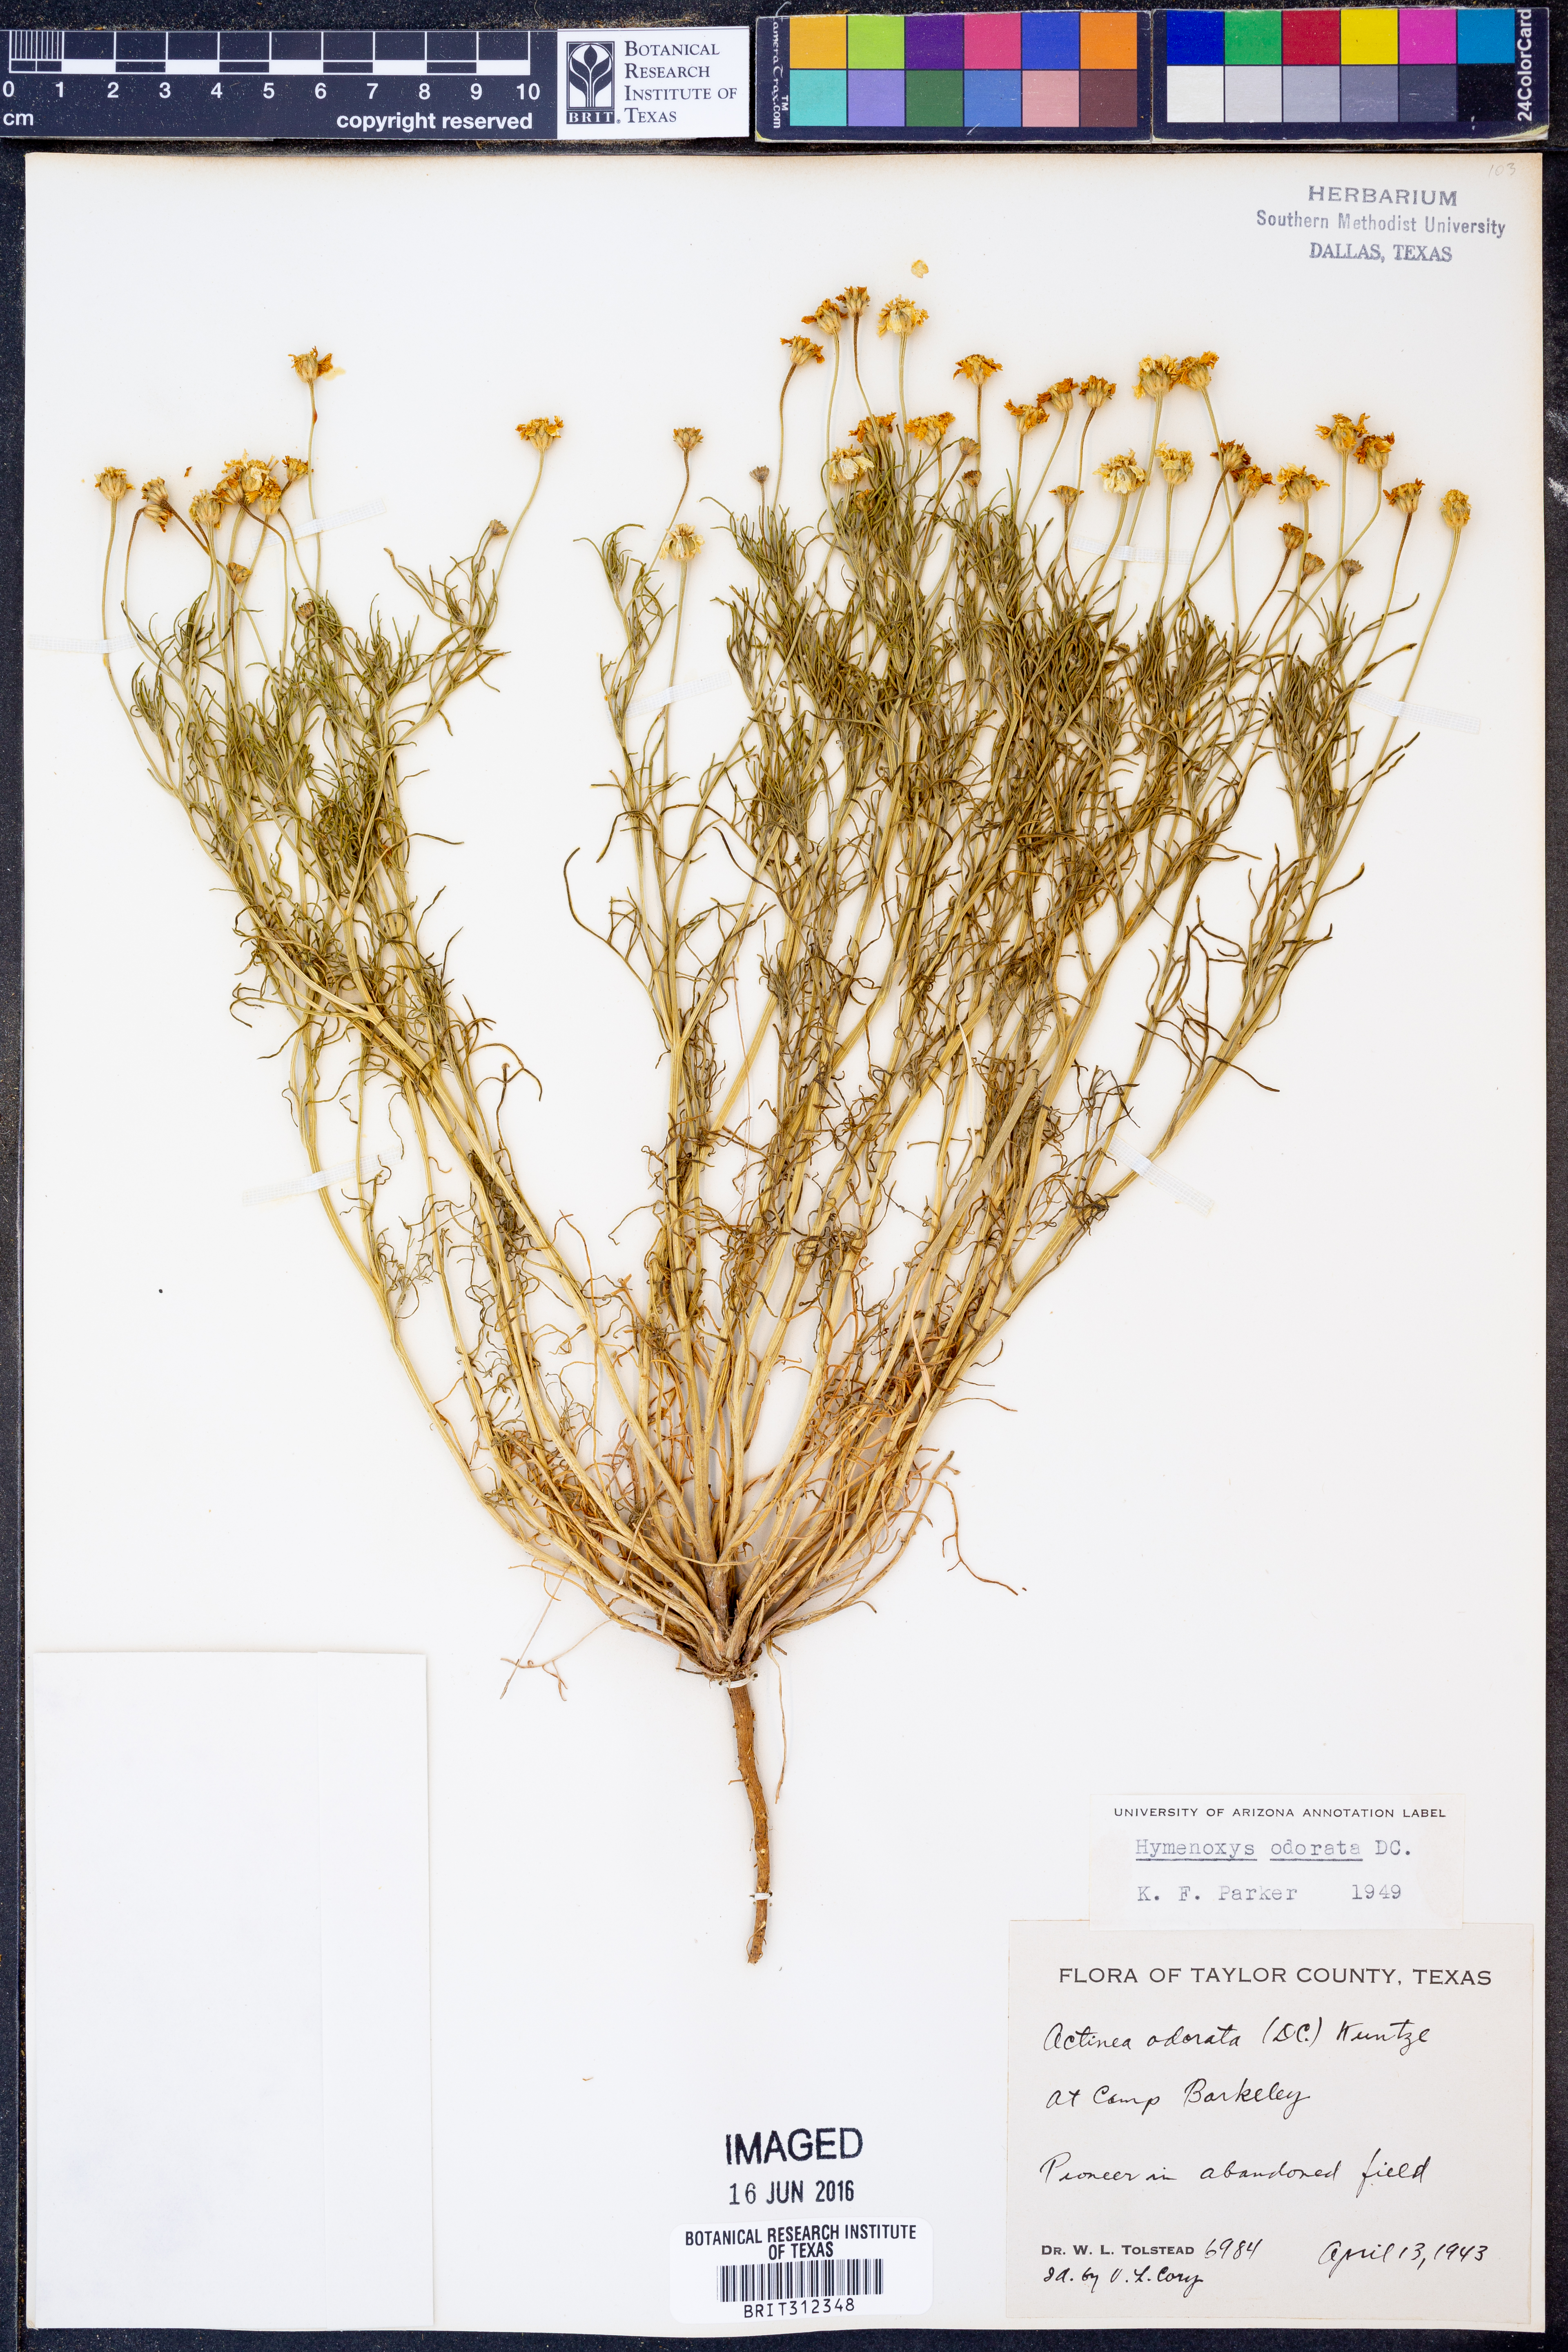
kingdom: Plantae
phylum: Tracheophyta
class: Magnoliopsida
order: Asterales
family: Asteraceae
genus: Hymenoxys
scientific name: Hymenoxys odorata
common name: Bitter rubberweed
